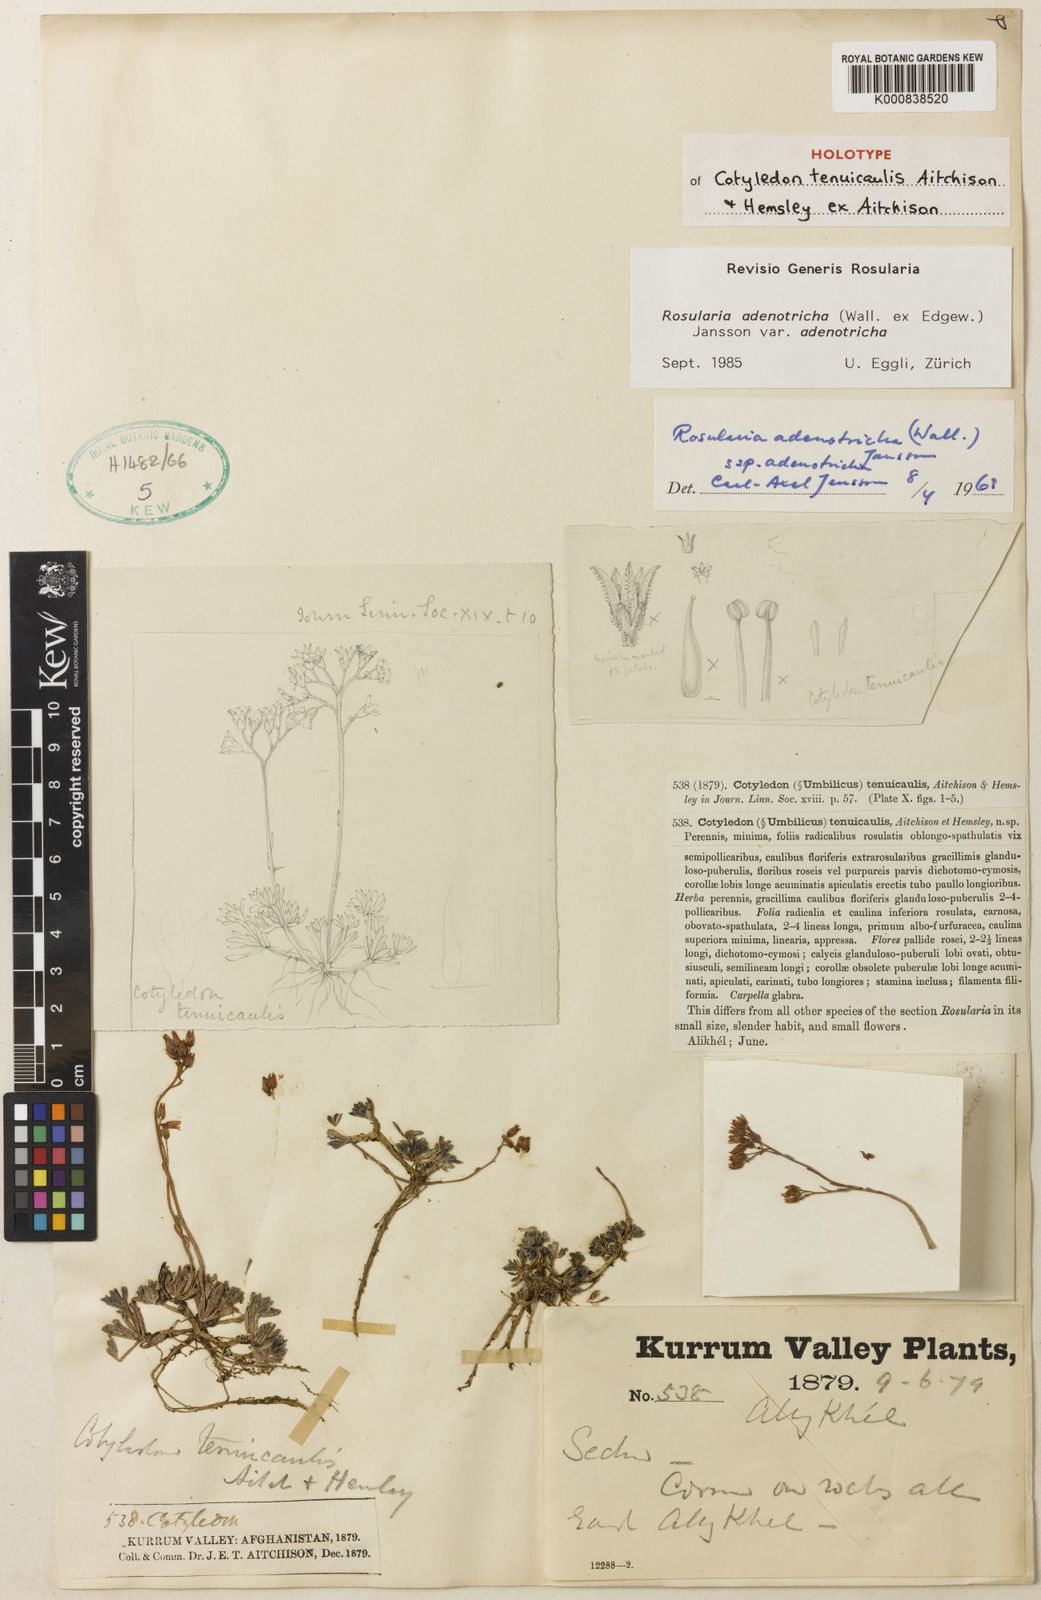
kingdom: Plantae
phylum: Tracheophyta
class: Magnoliopsida
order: Saxifragales
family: Crassulaceae
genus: Rosularia
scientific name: Rosularia adenotricha
